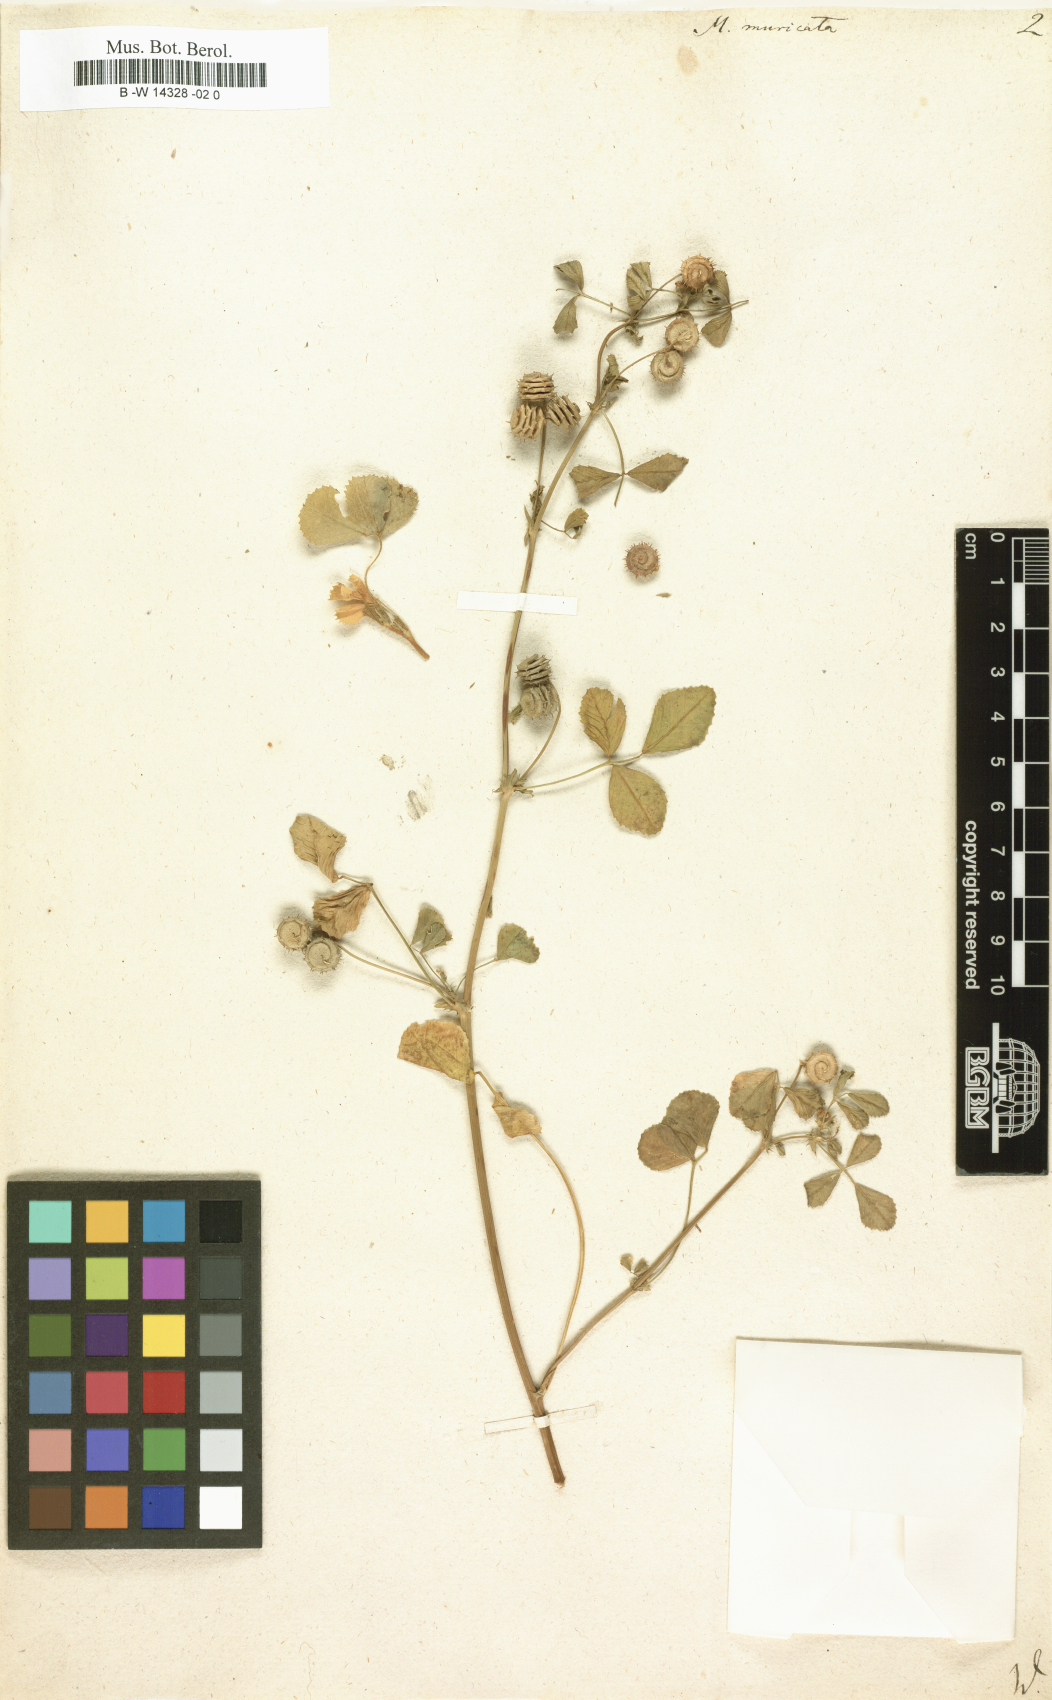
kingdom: Plantae
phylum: Tracheophyta
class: Magnoliopsida
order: Fabales
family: Fabaceae
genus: Medicago
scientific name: Medicago tornata
